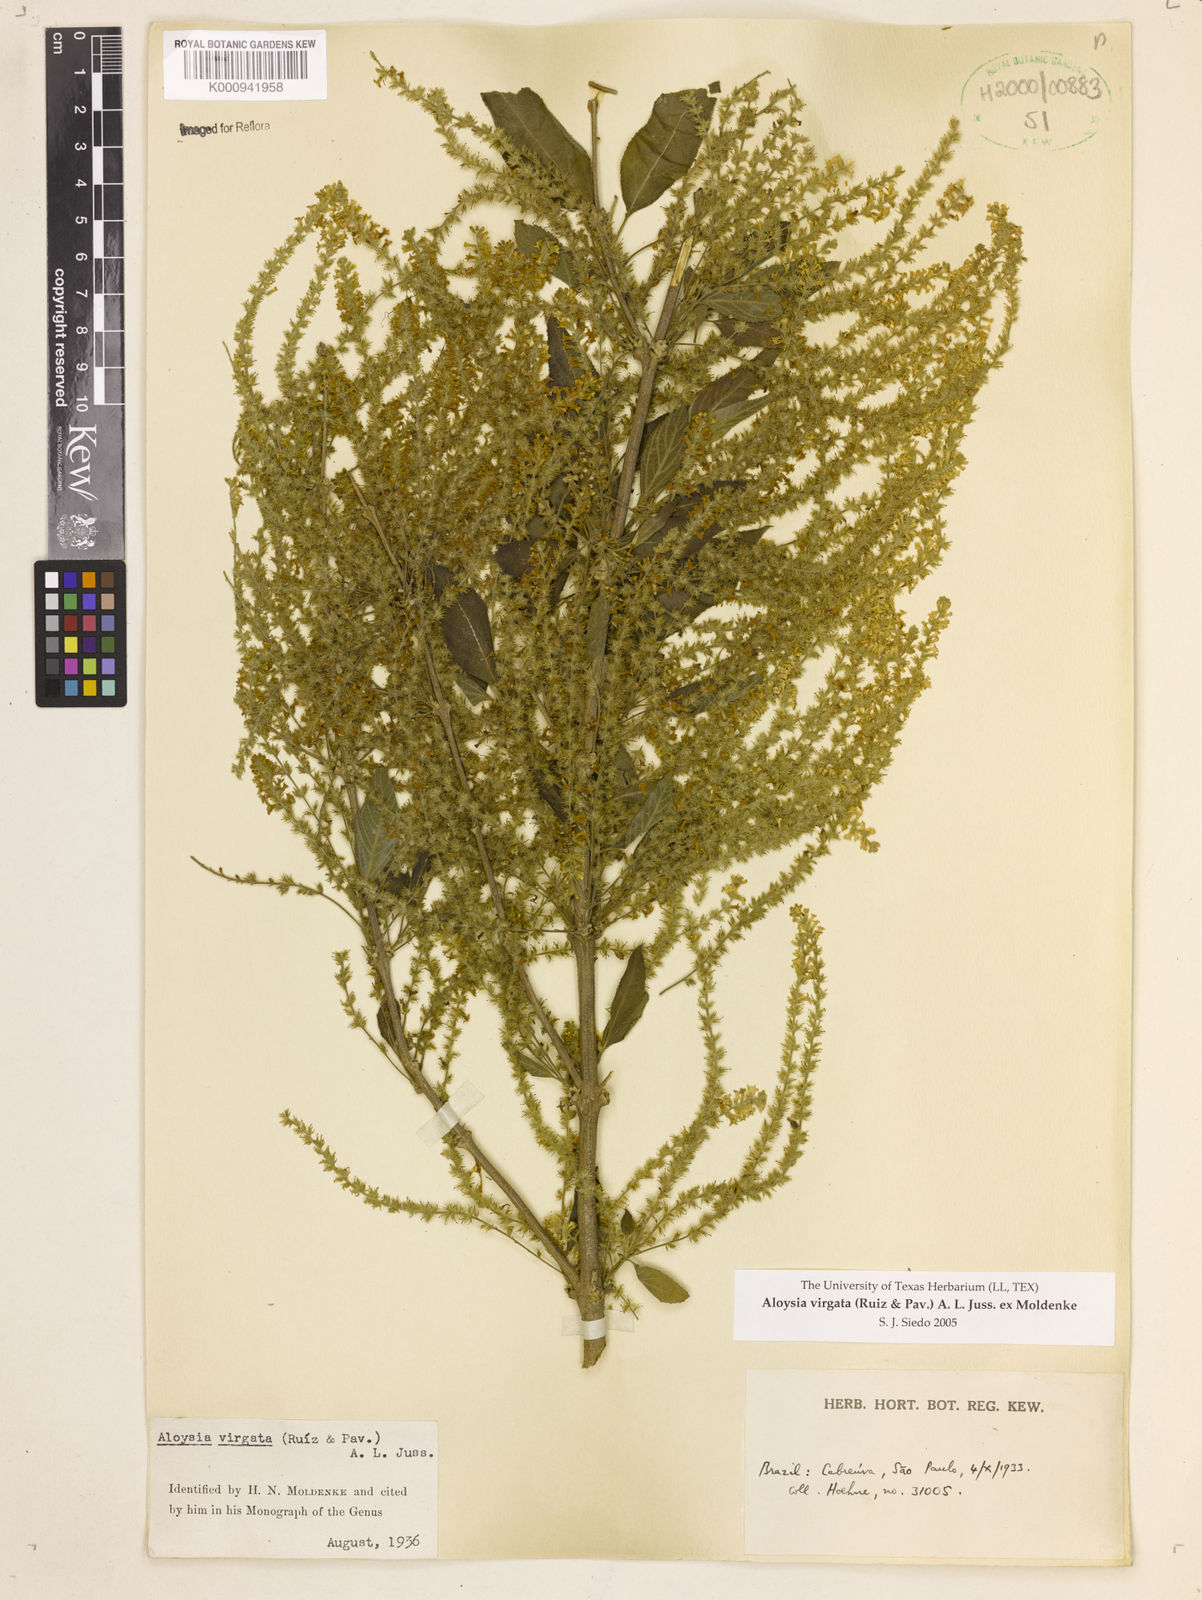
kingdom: Plantae
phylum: Tracheophyta
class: Magnoliopsida
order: Lamiales
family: Verbenaceae
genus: Aloysia
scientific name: Aloysia
